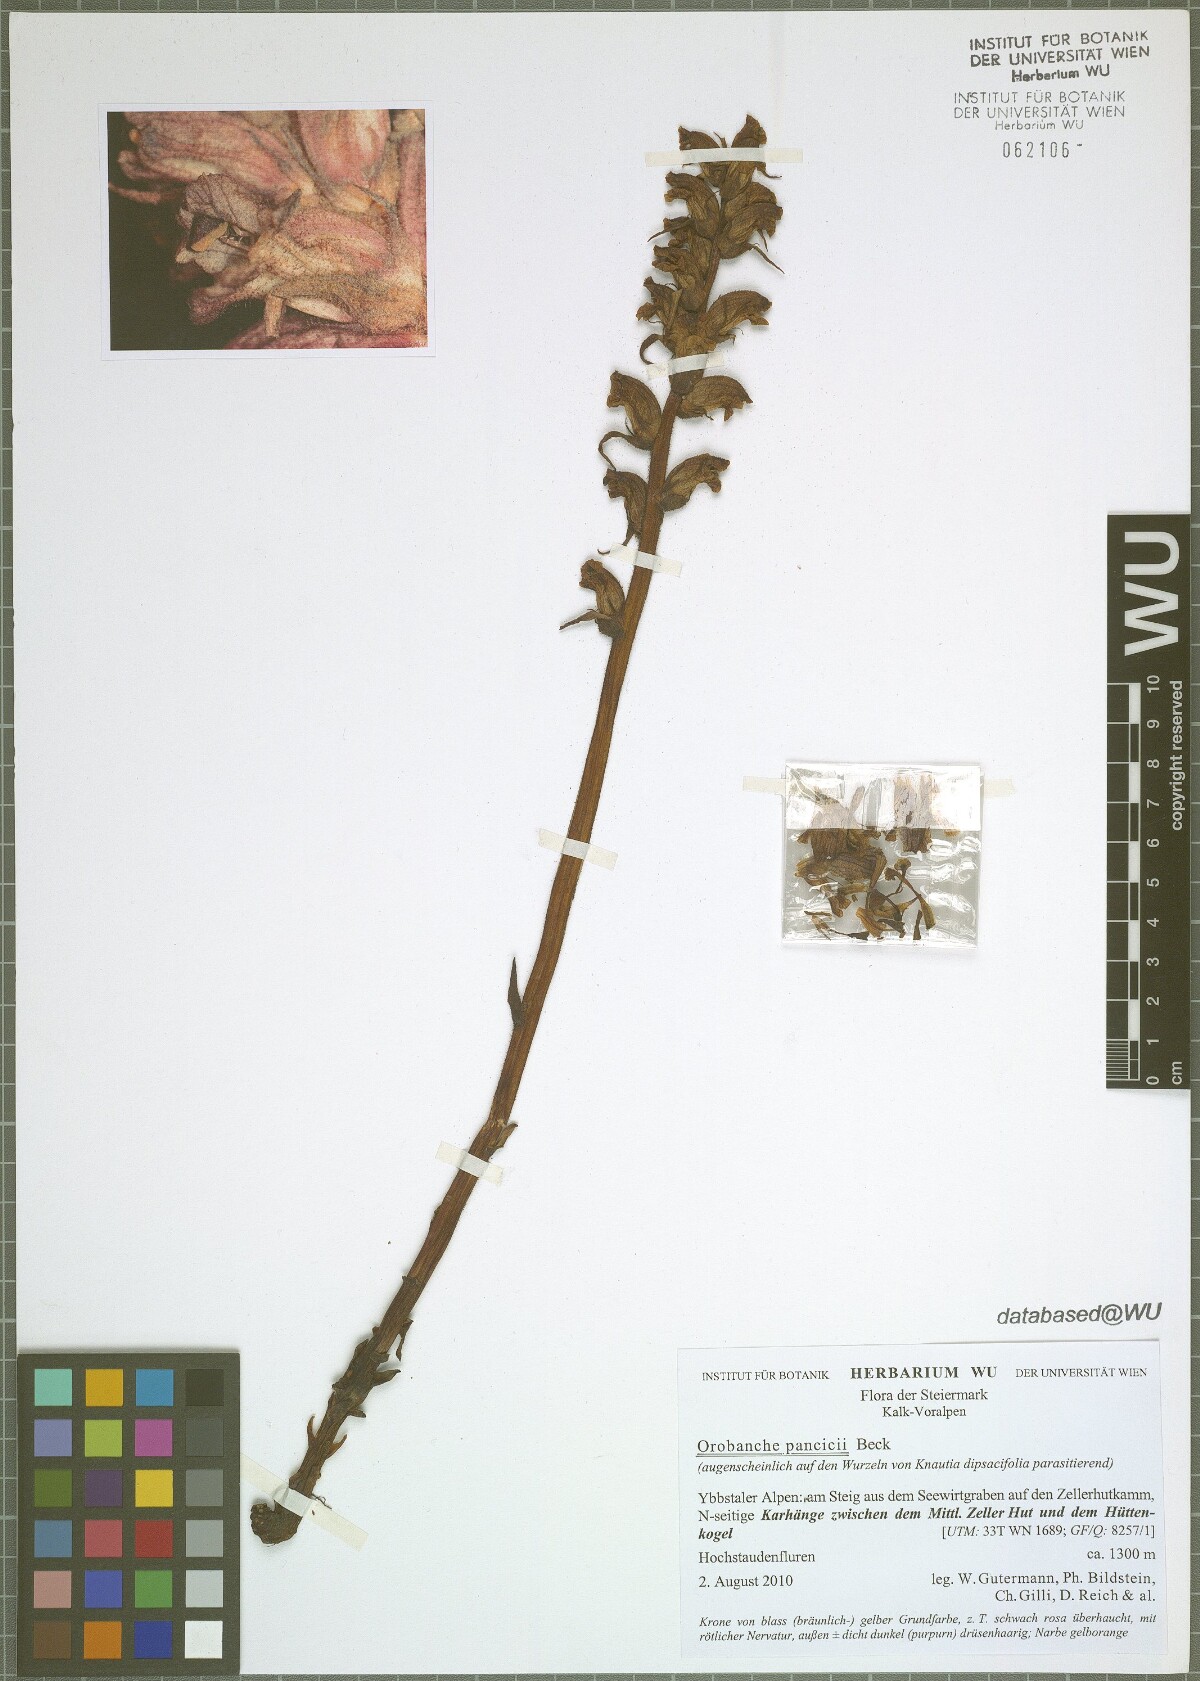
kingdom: Plantae
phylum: Tracheophyta
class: Magnoliopsida
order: Lamiales
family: Orobanchaceae
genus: Orobanche
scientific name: Orobanche pancicii
